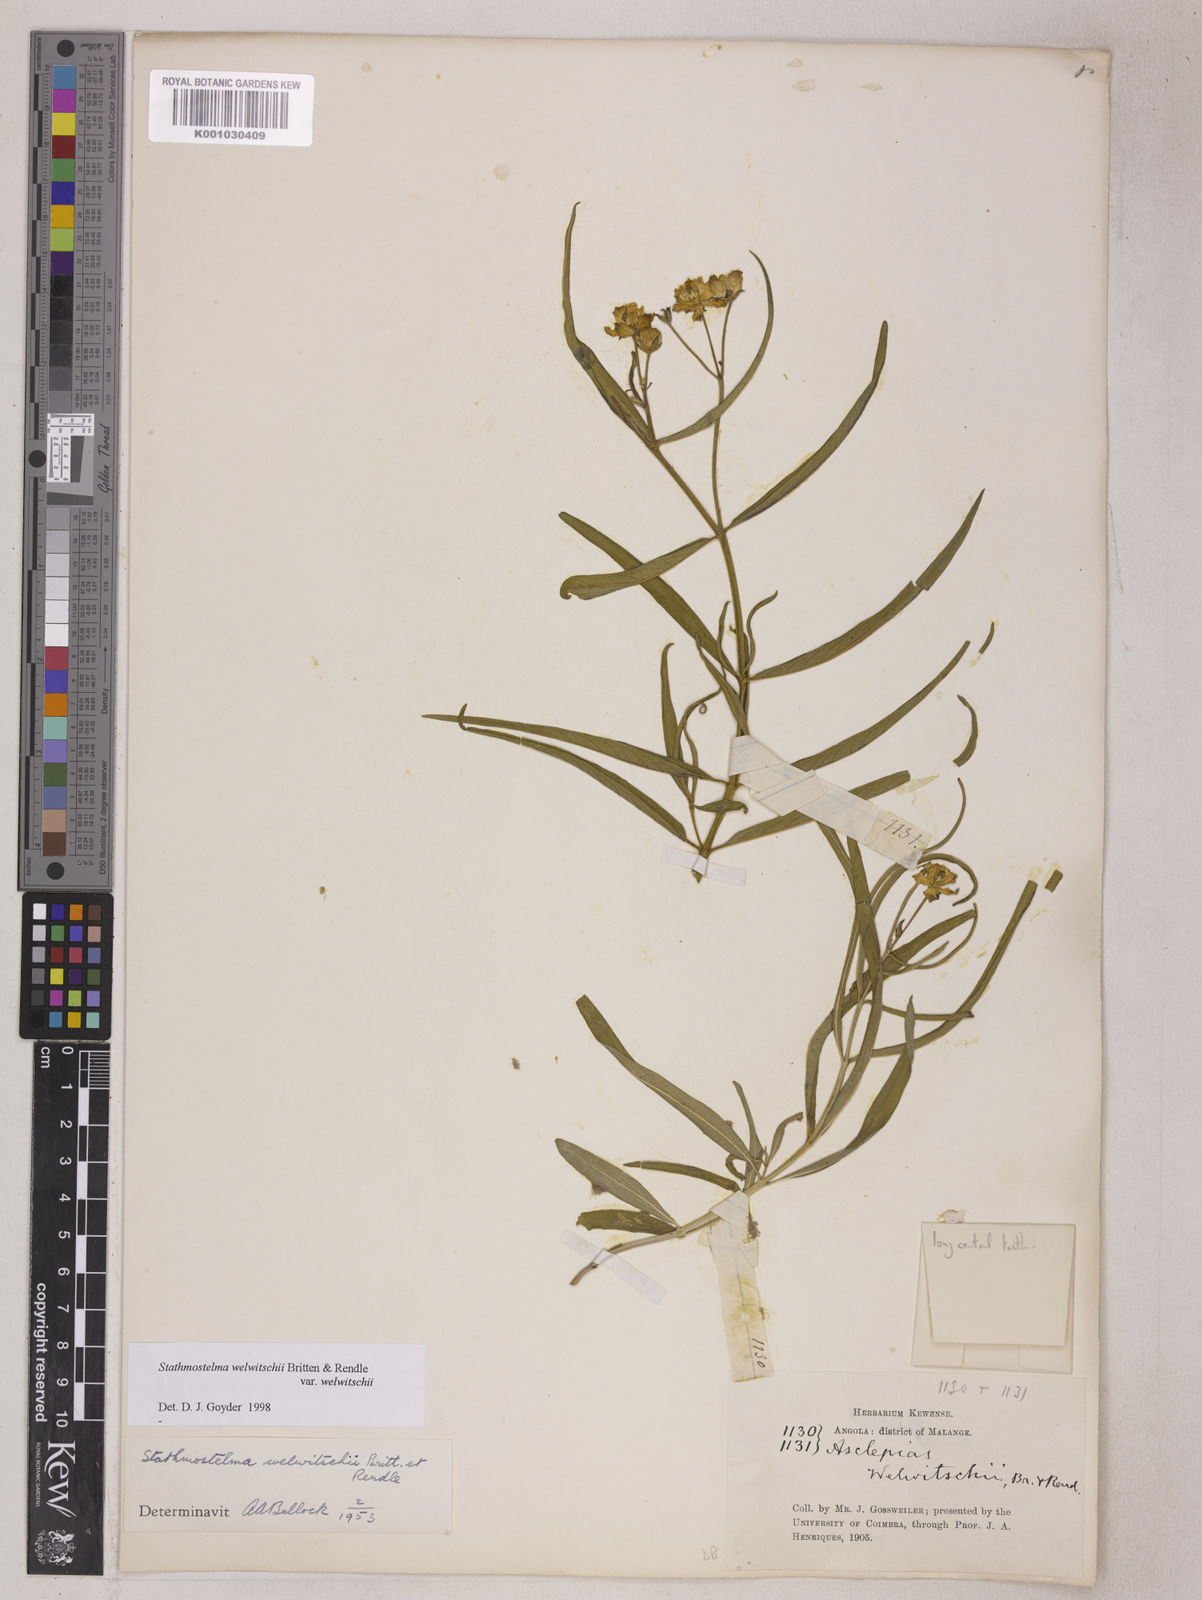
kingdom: Plantae
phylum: Tracheophyta
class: Magnoliopsida
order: Gentianales
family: Apocynaceae
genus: Stathmostelma
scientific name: Stathmostelma welwitschii
